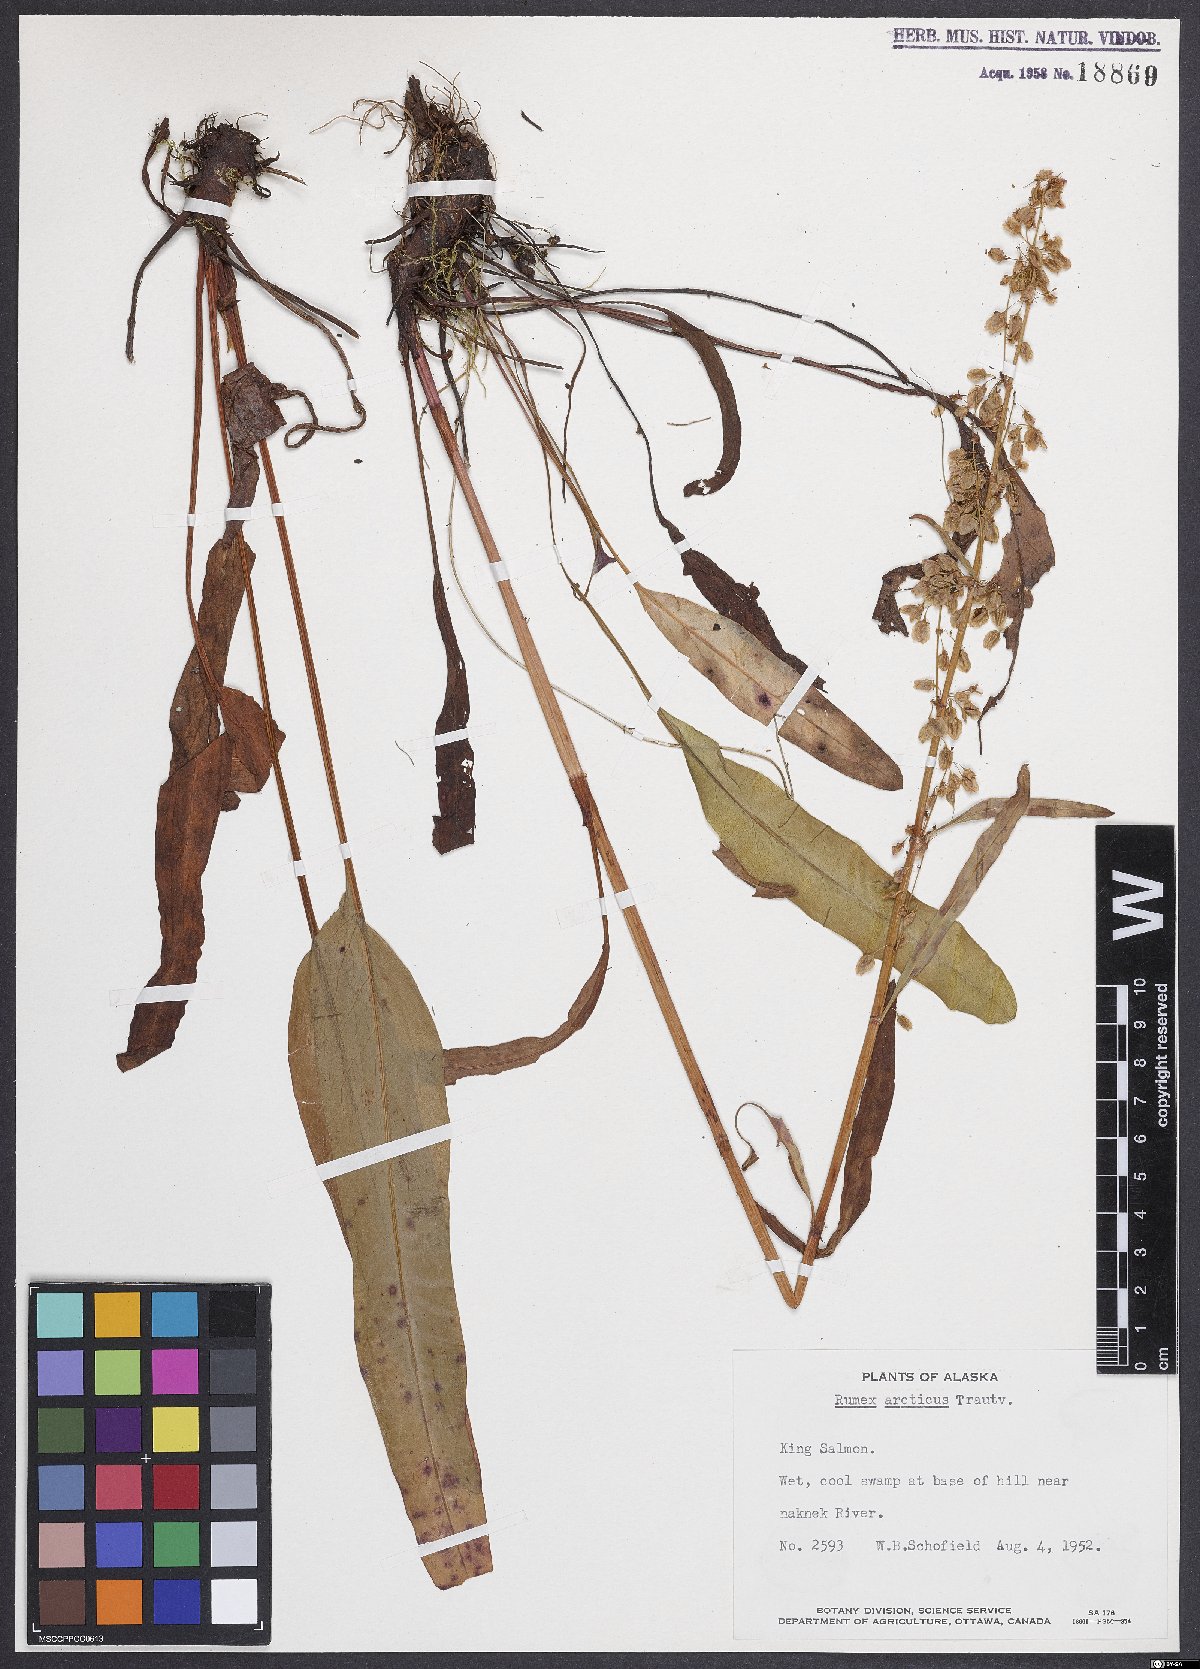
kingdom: Plantae
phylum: Tracheophyta
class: Magnoliopsida
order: Caryophyllales
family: Polygonaceae
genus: Rumex
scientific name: Rumex arcticus
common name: Arctic dock
